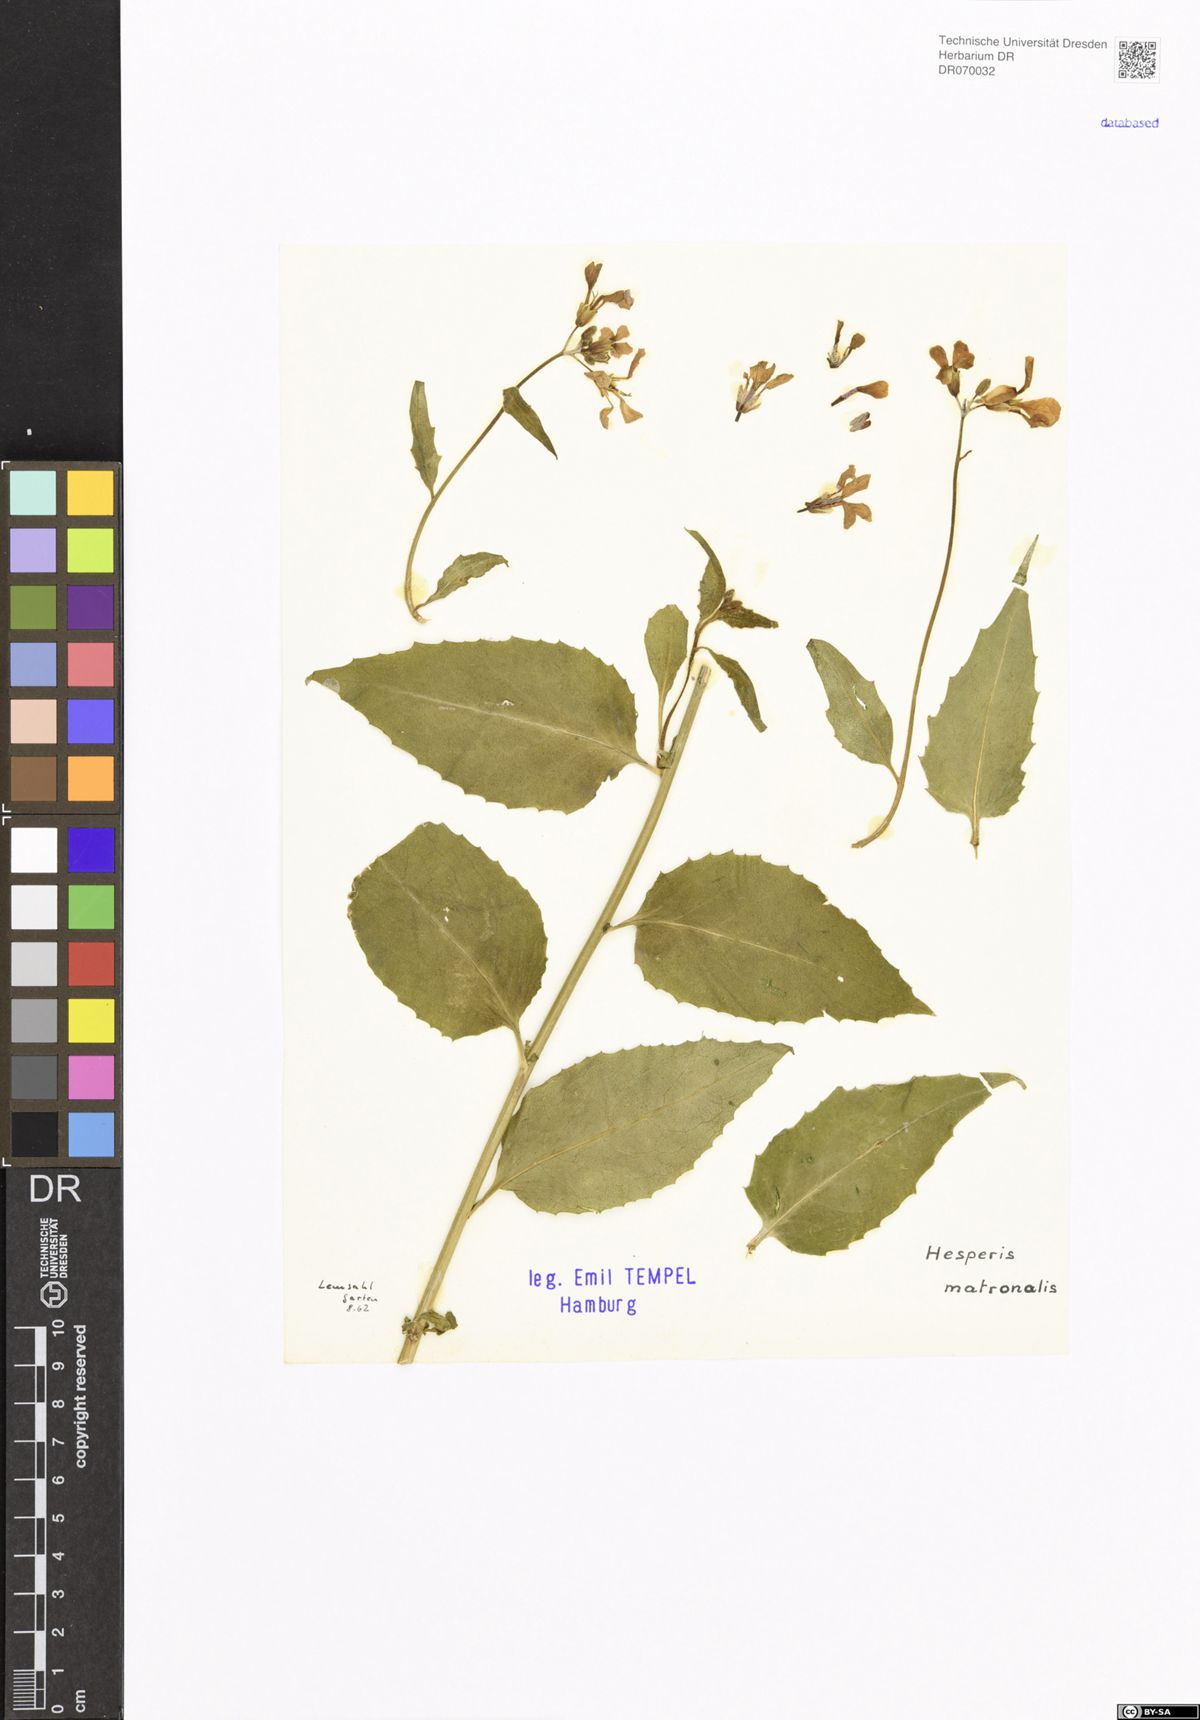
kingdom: Plantae
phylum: Tracheophyta
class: Magnoliopsida
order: Brassicales
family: Brassicaceae
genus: Hesperis
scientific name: Hesperis matronalis
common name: Dame's-violet
